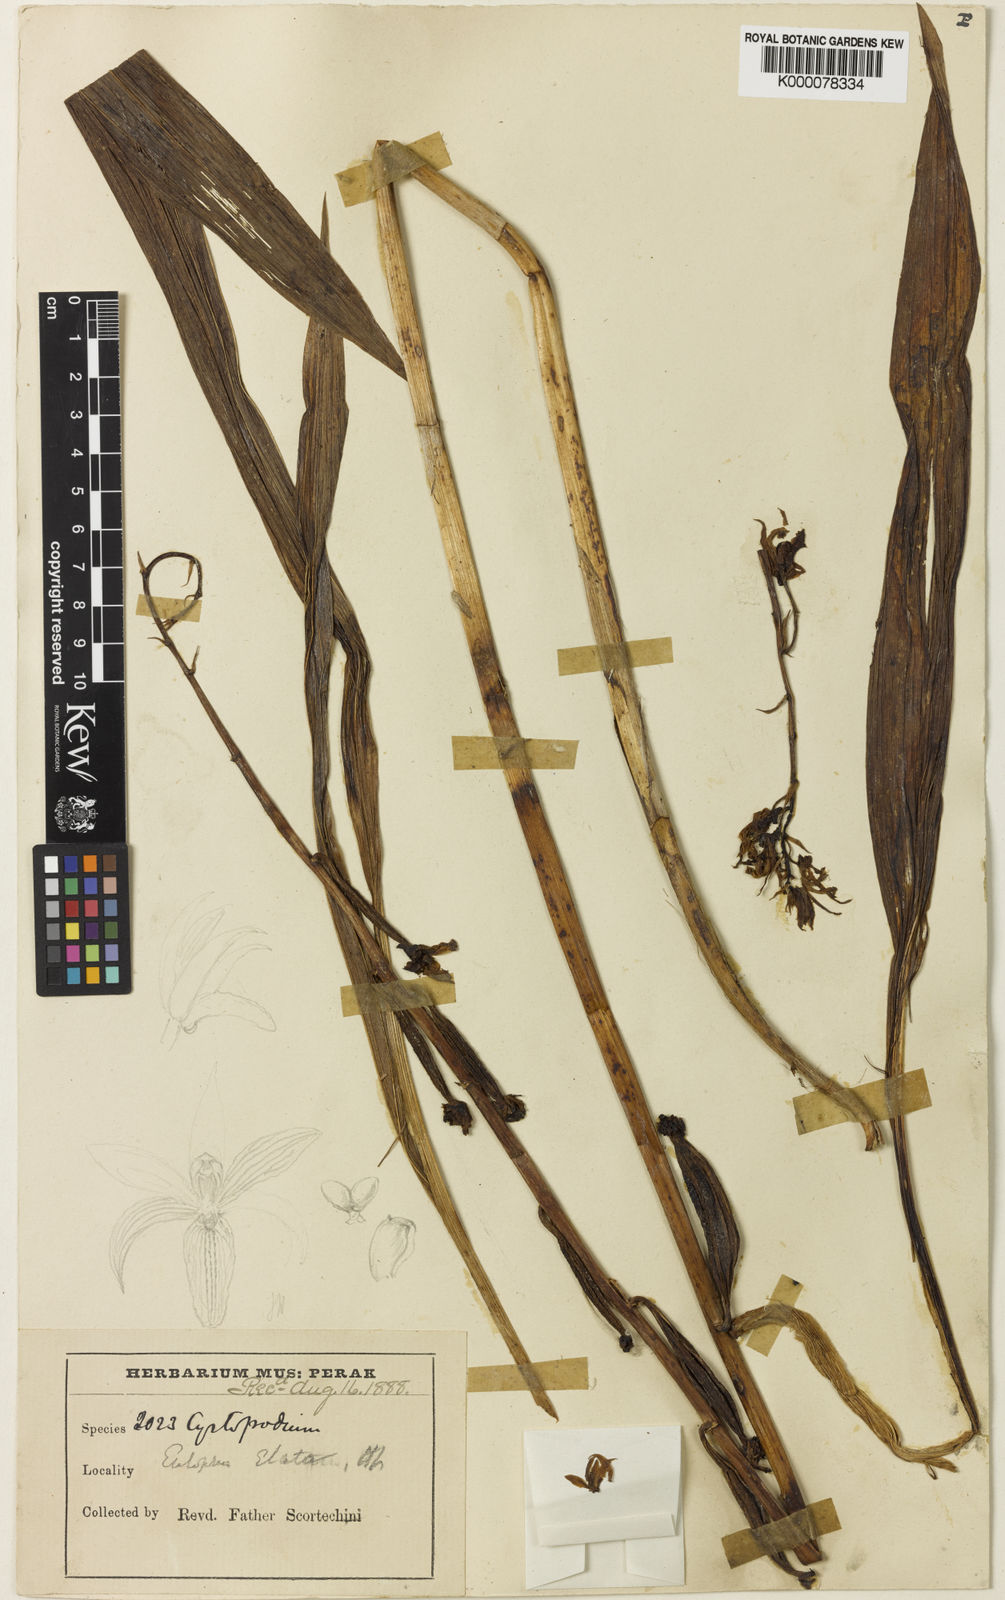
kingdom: Plantae
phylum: Tracheophyta
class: Liliopsida
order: Asparagales
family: Orchidaceae
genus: Eulophia
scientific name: Eulophia nuda
